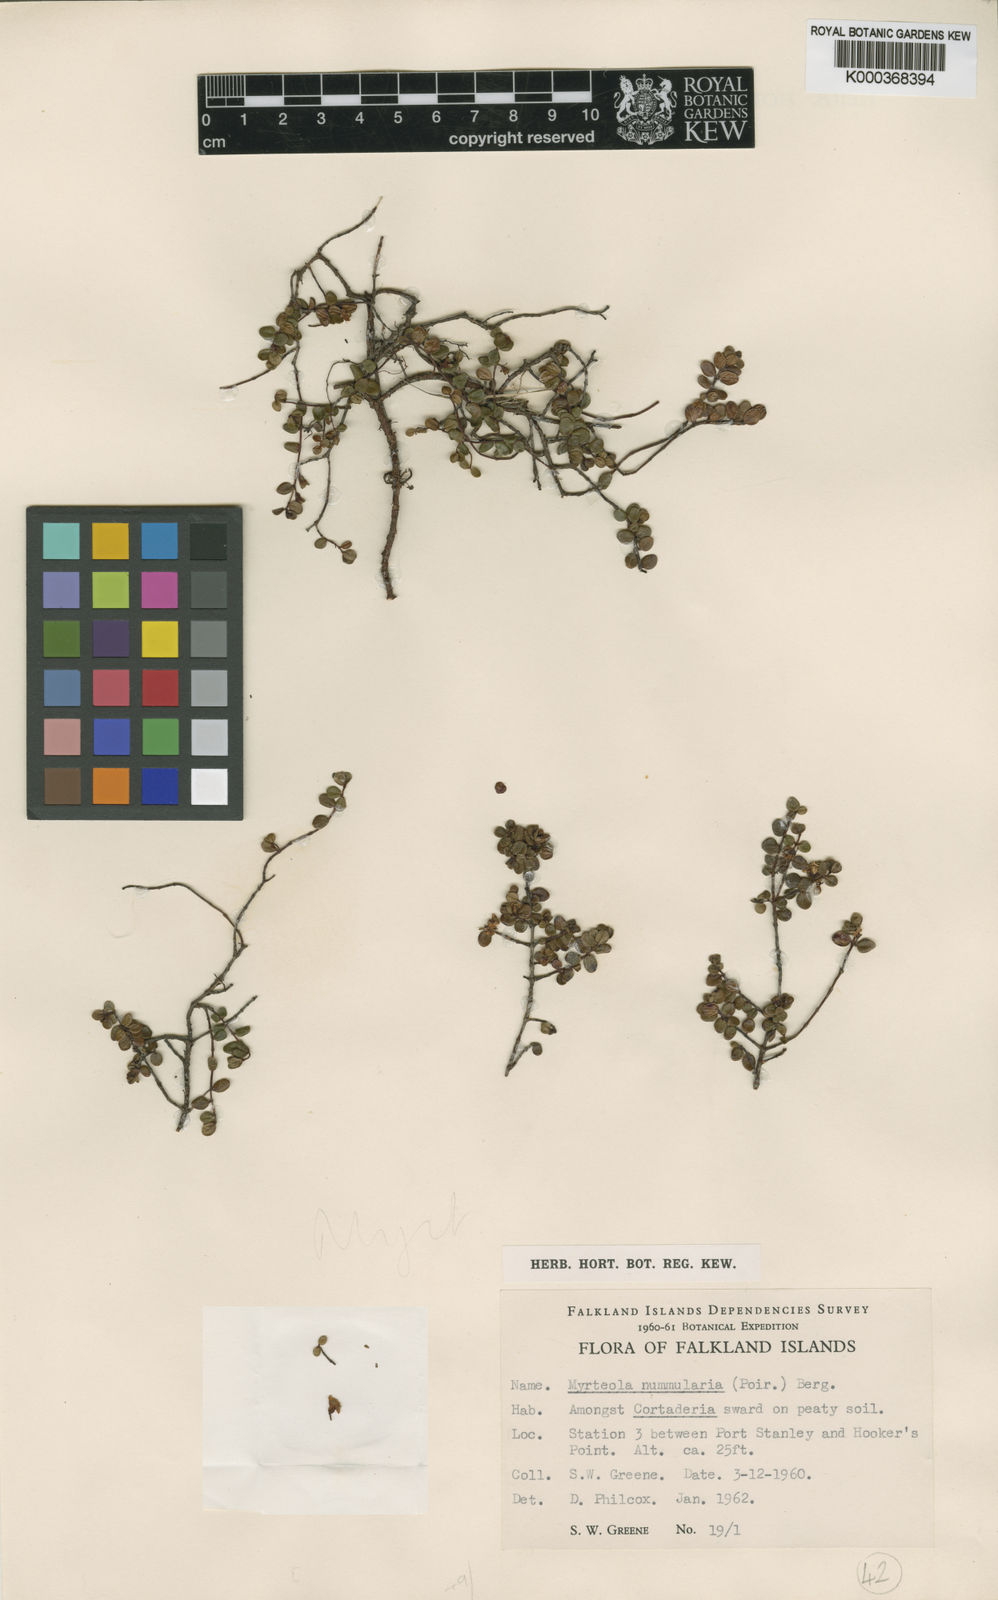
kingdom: Plantae
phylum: Tracheophyta
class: Magnoliopsida
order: Myrtales
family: Myrtaceae
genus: Myrteola
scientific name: Myrteola nummularia
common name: Cranberry-myrtle
